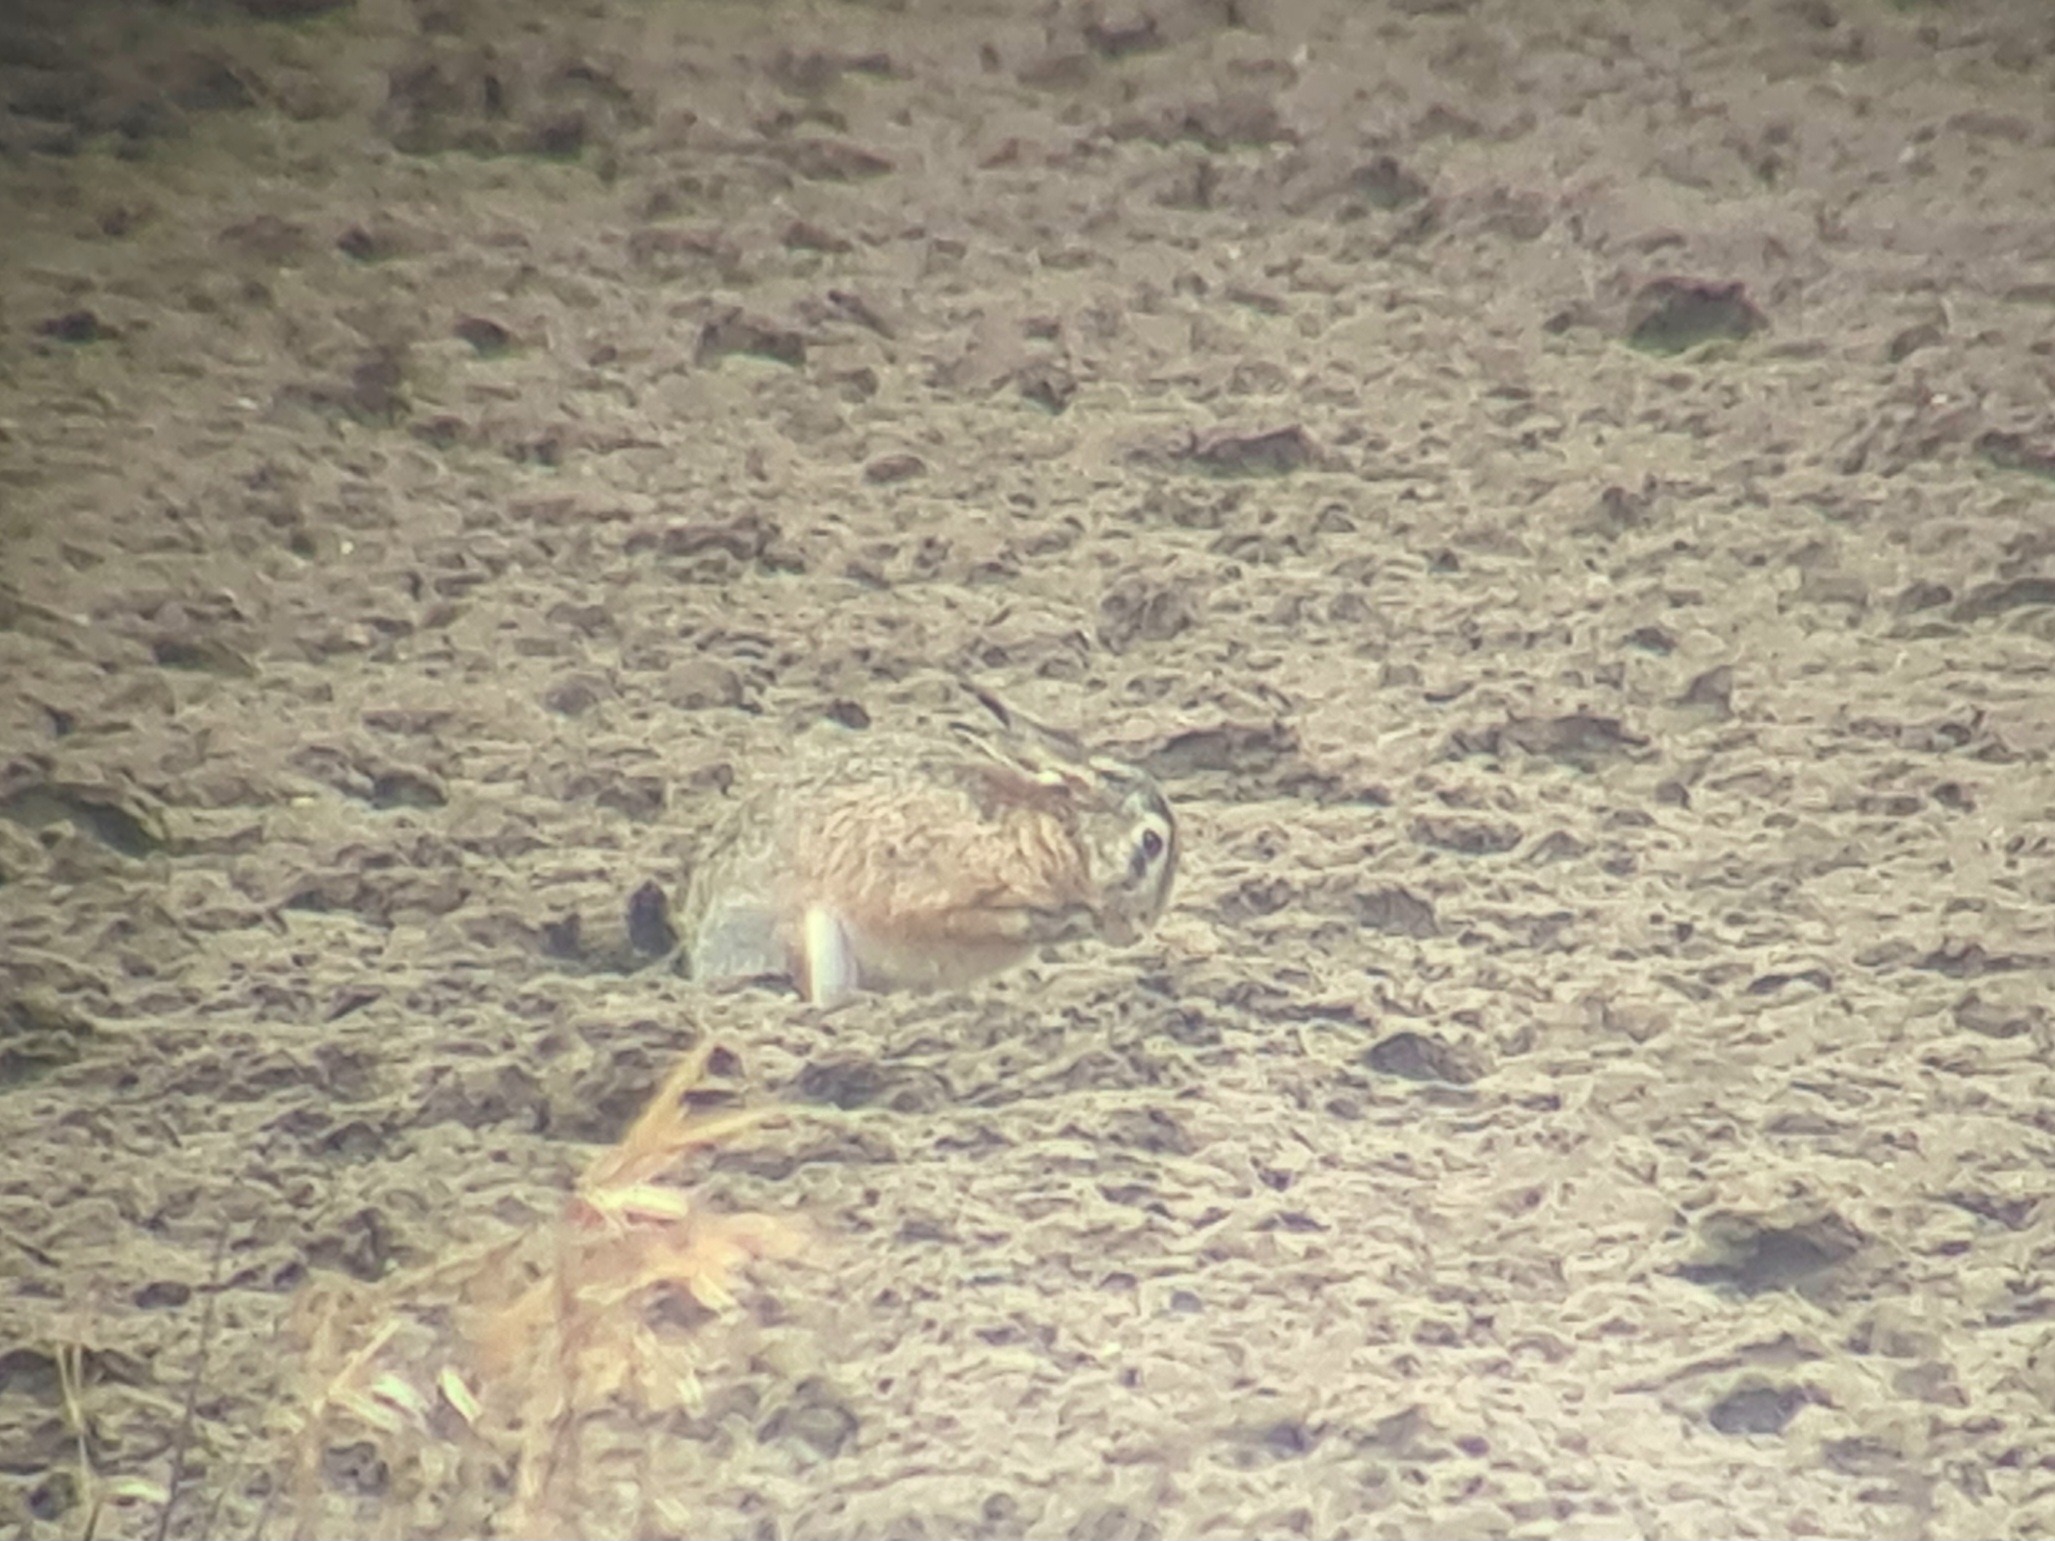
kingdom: Animalia
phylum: Chordata
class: Mammalia
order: Lagomorpha
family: Leporidae
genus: Lepus
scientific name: Lepus europaeus
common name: Hare
